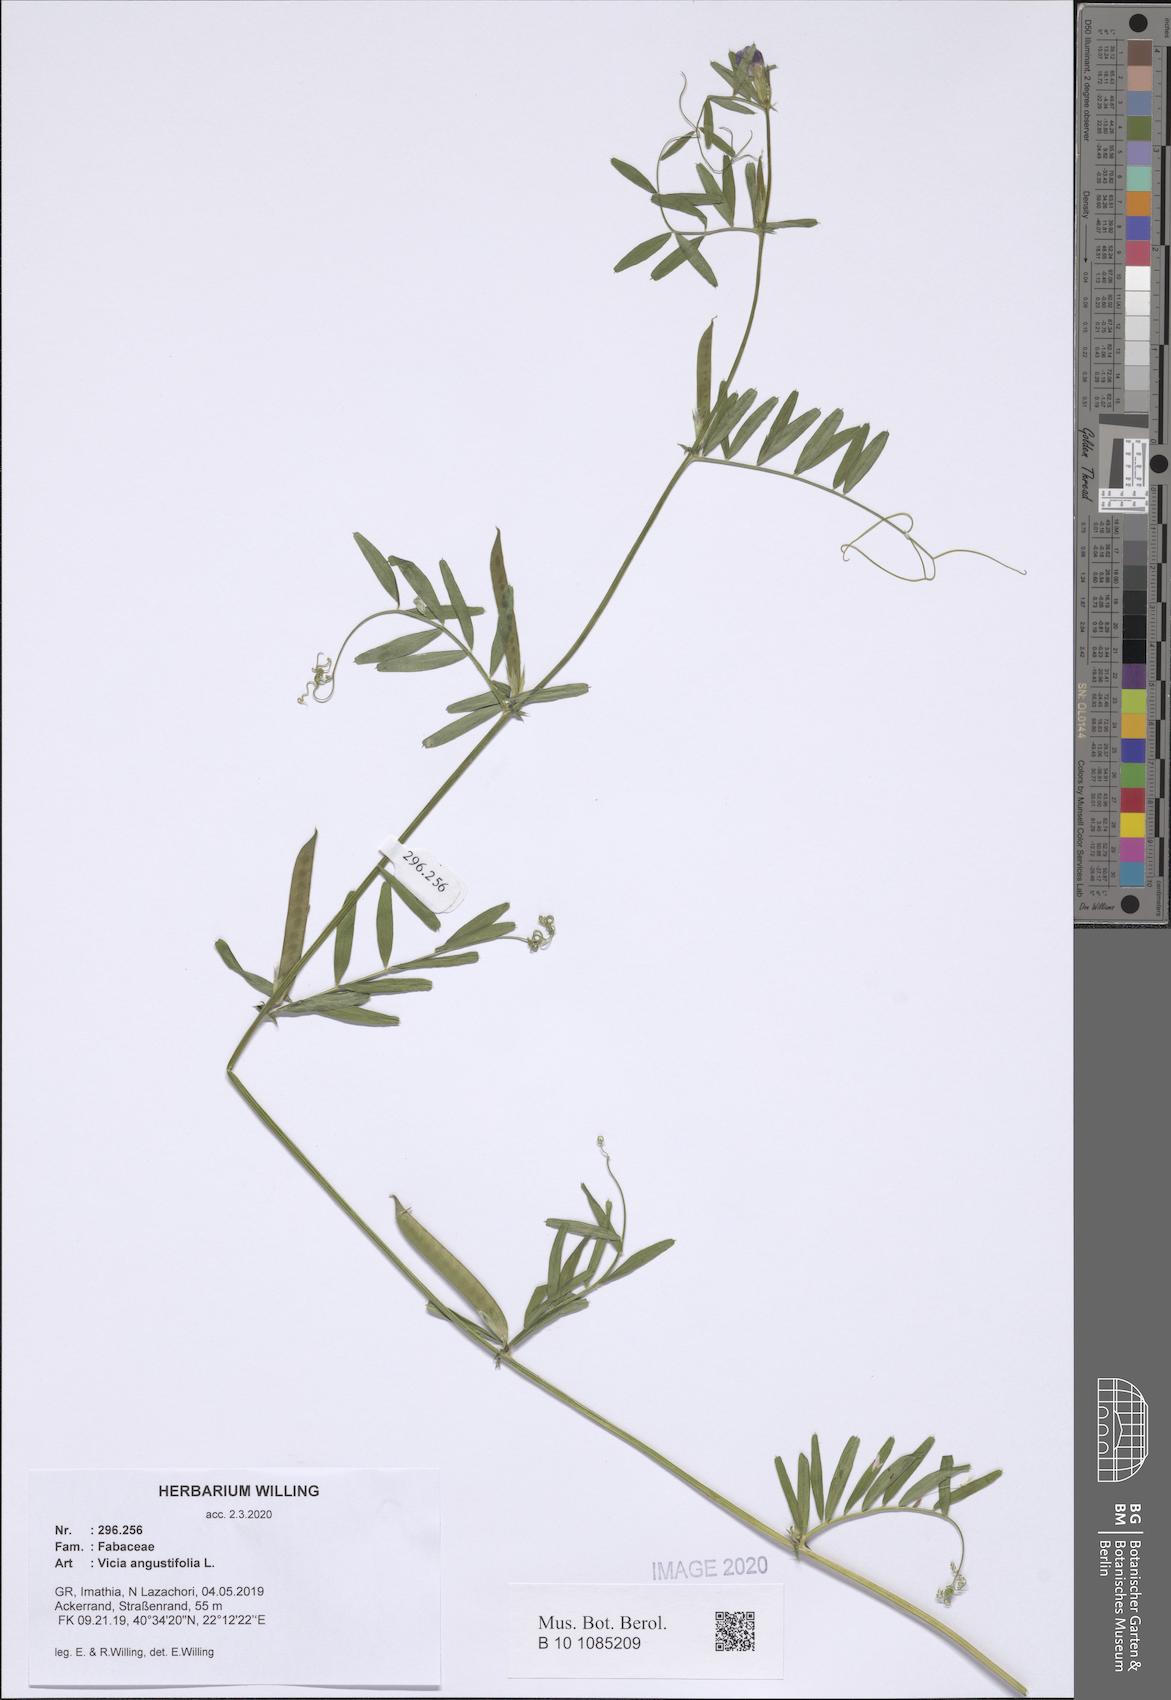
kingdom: Plantae
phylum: Tracheophyta
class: Magnoliopsida
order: Fabales
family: Fabaceae
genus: Vicia
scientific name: Vicia sativa
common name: Garden vetch
